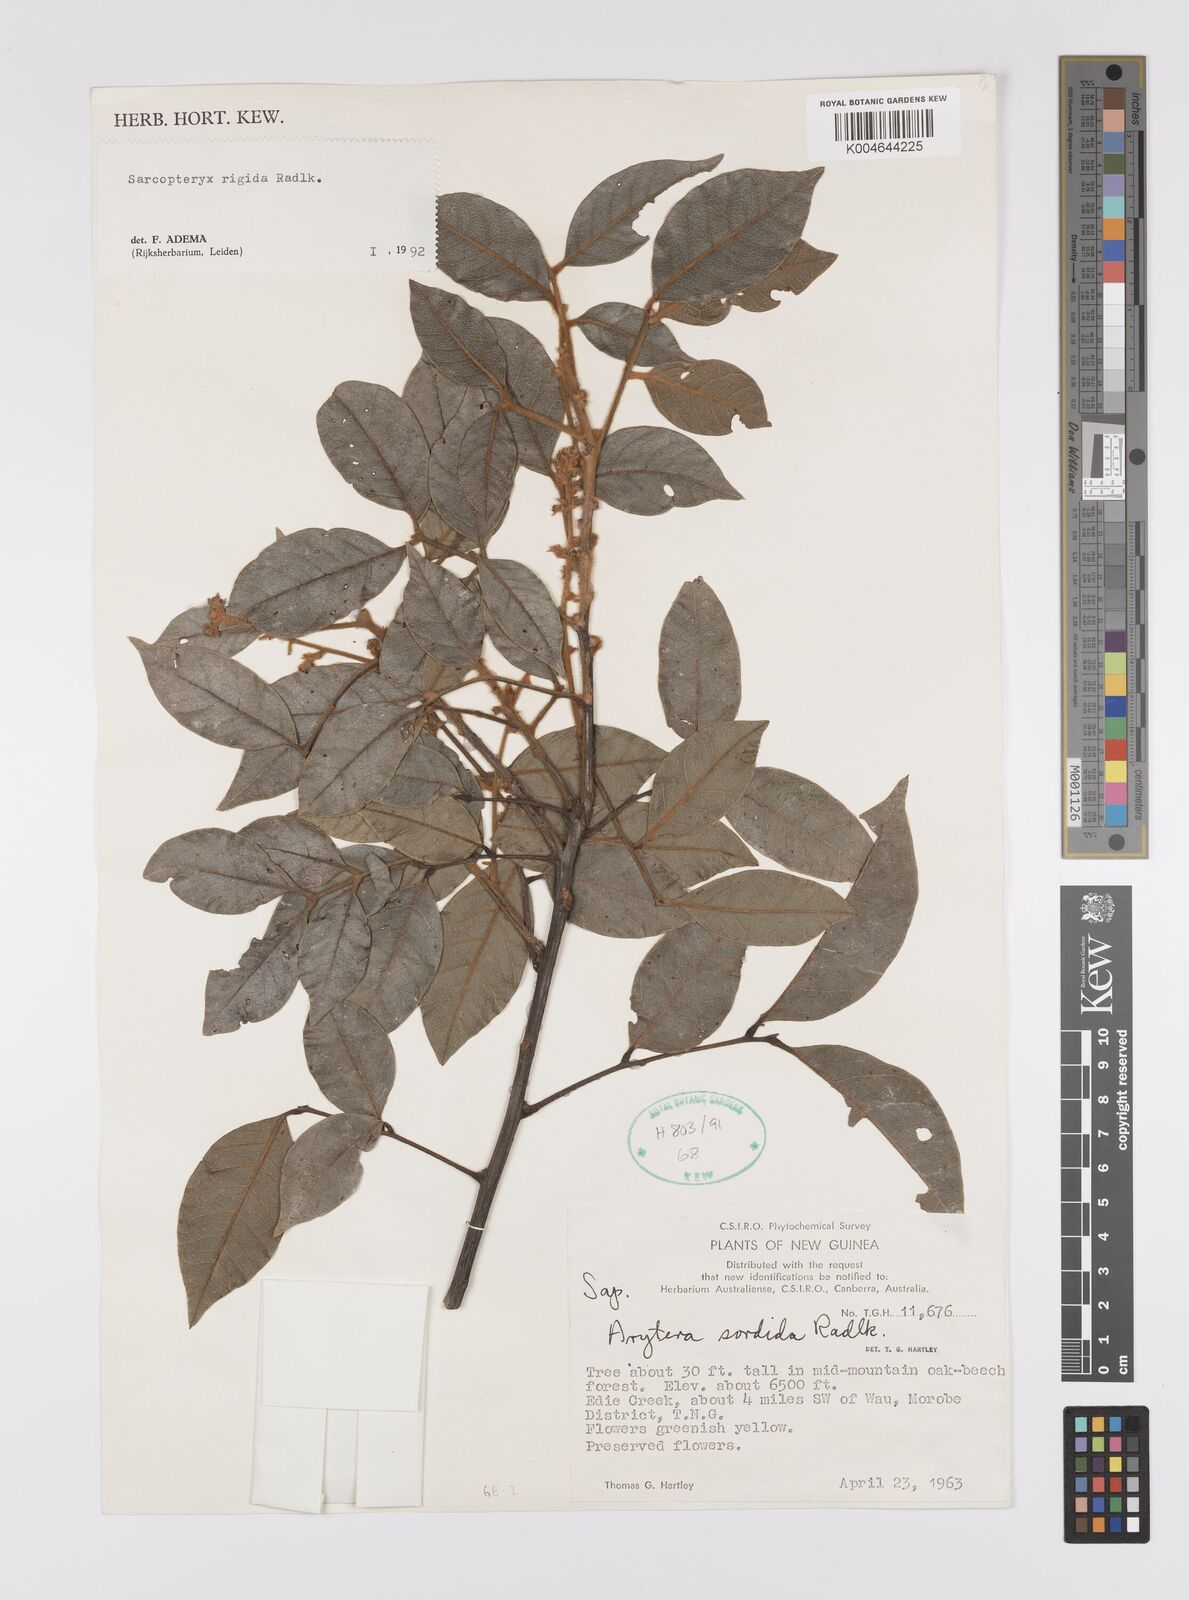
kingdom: Plantae
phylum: Tracheophyta
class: Magnoliopsida
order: Sapindales
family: Sapindaceae
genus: Sarcopteryx
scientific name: Sarcopteryx rigida
